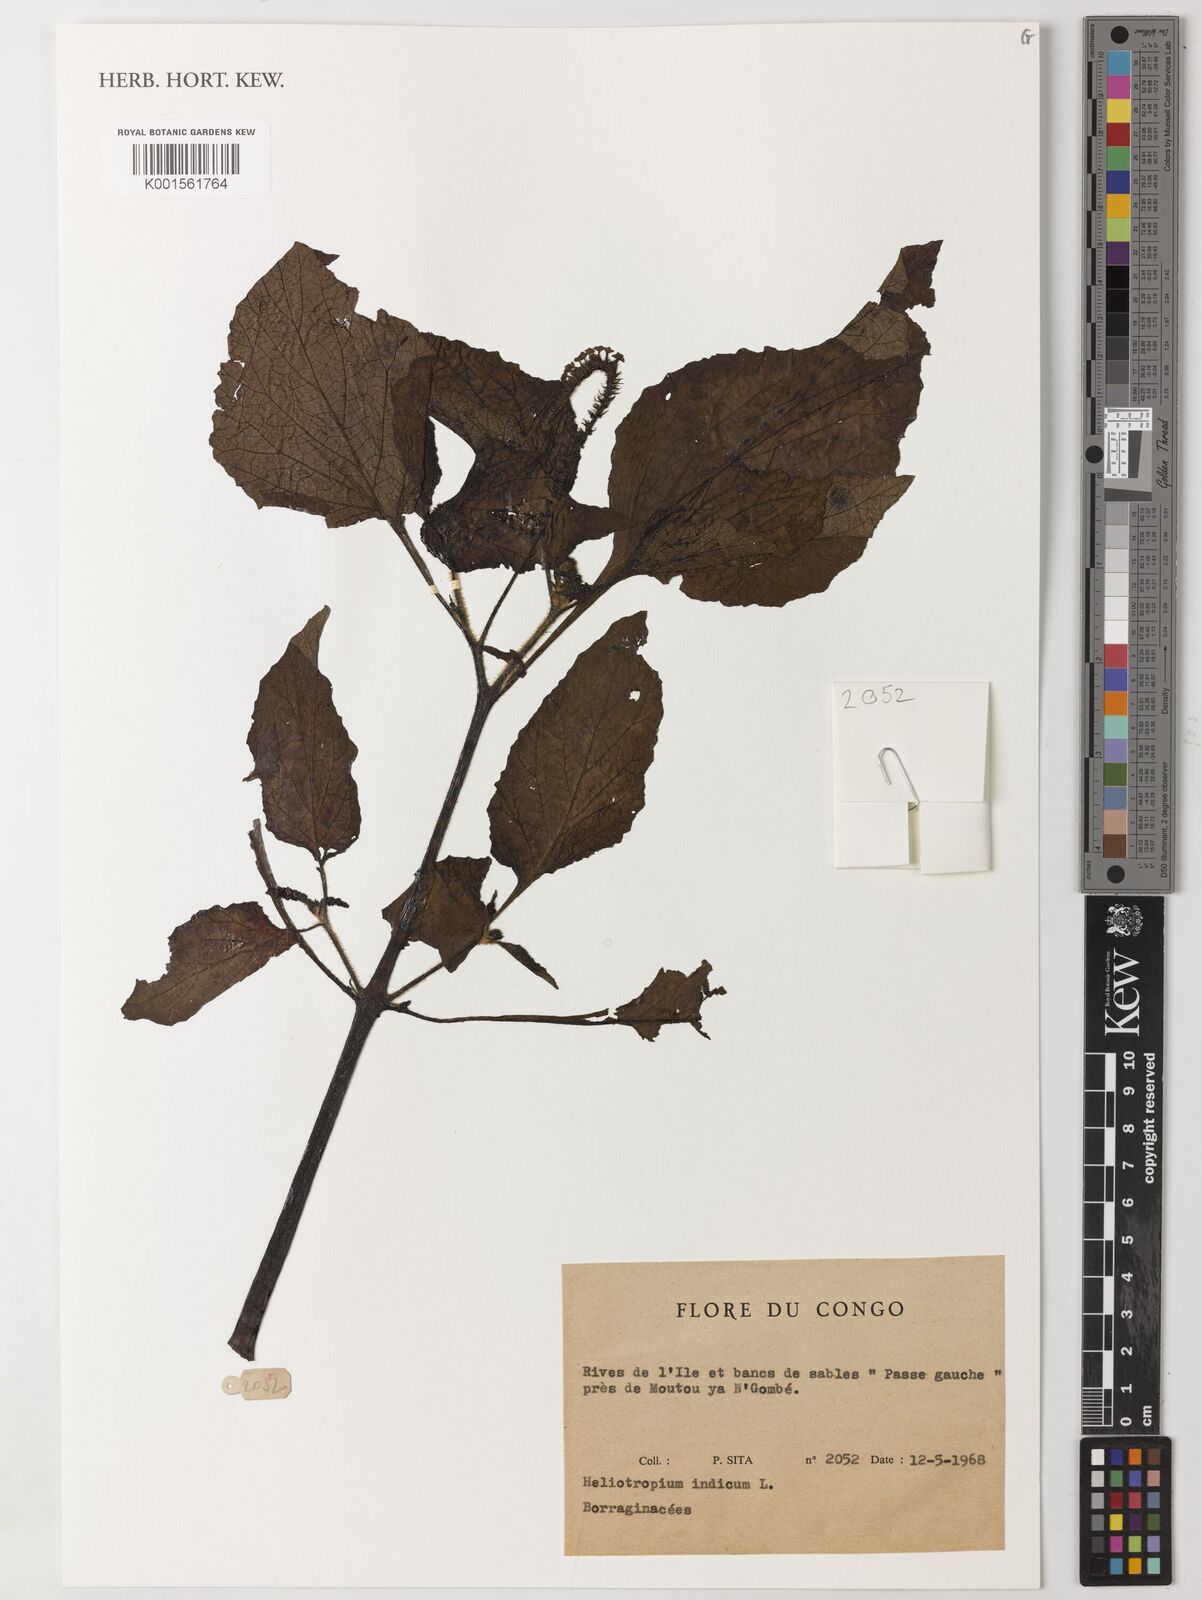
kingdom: Plantae
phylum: Tracheophyta
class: Magnoliopsida
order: Boraginales
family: Heliotropiaceae
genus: Heliotropium
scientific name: Heliotropium indicum
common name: Indian heliotrope
